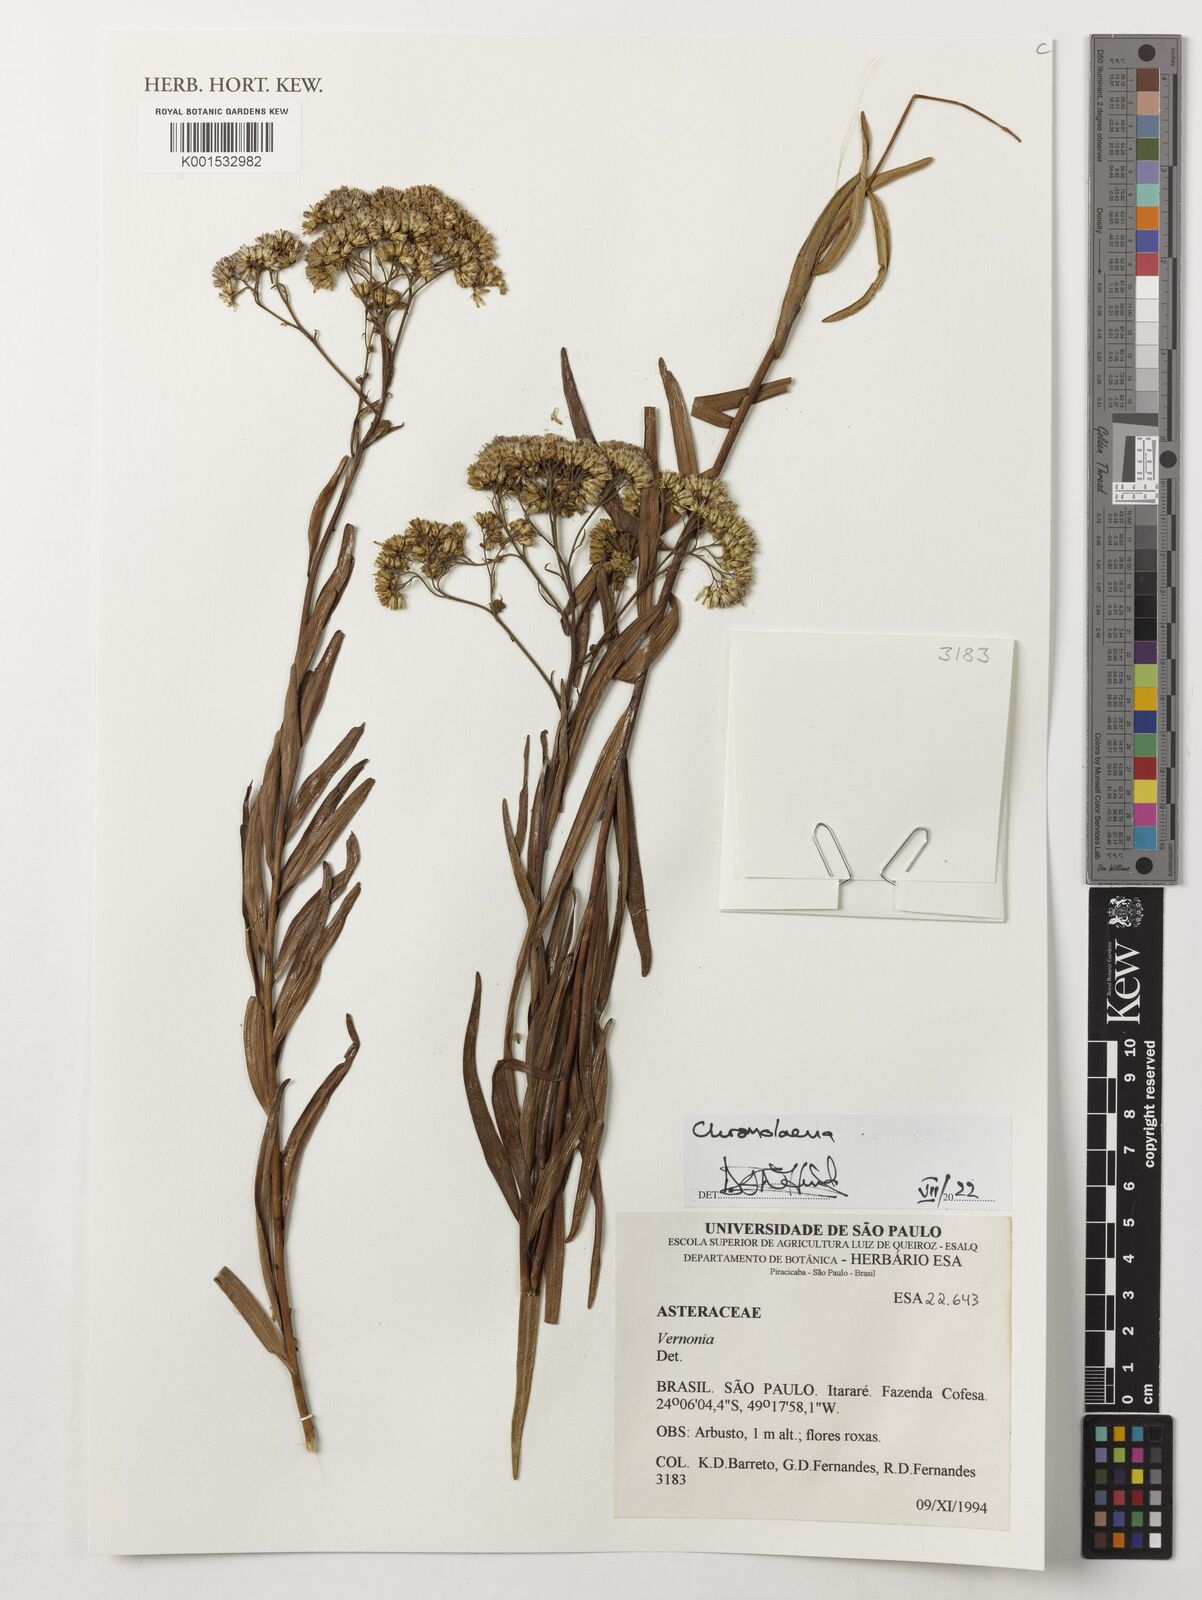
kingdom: Plantae
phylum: Tracheophyta
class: Magnoliopsida
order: Asterales
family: Asteraceae
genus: Chromolaena
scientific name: Chromolaena
